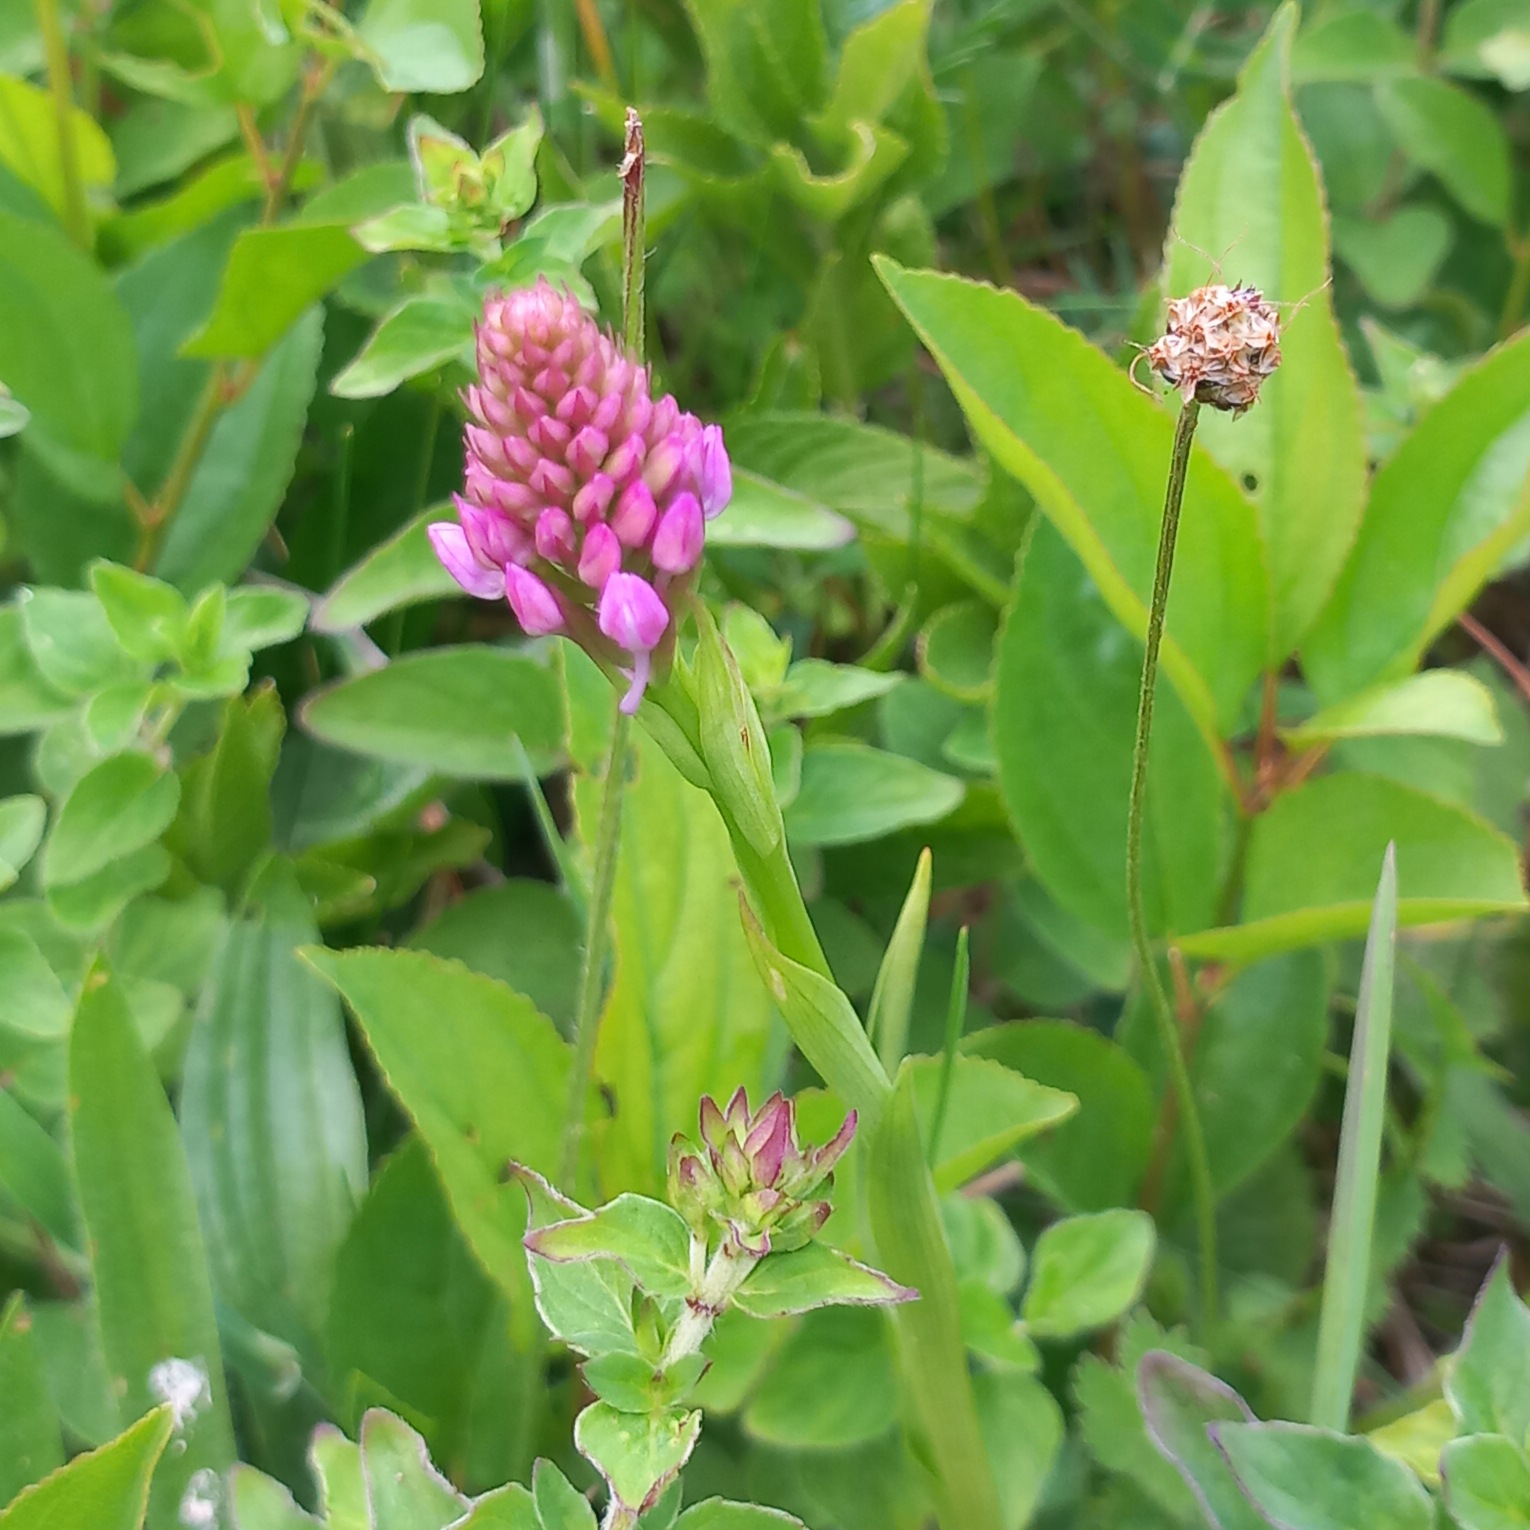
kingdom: Plantae
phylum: Tracheophyta
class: Liliopsida
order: Asparagales
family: Orchidaceae
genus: Anacamptis
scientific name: Anacamptis pyramidalis
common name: Horndrager
